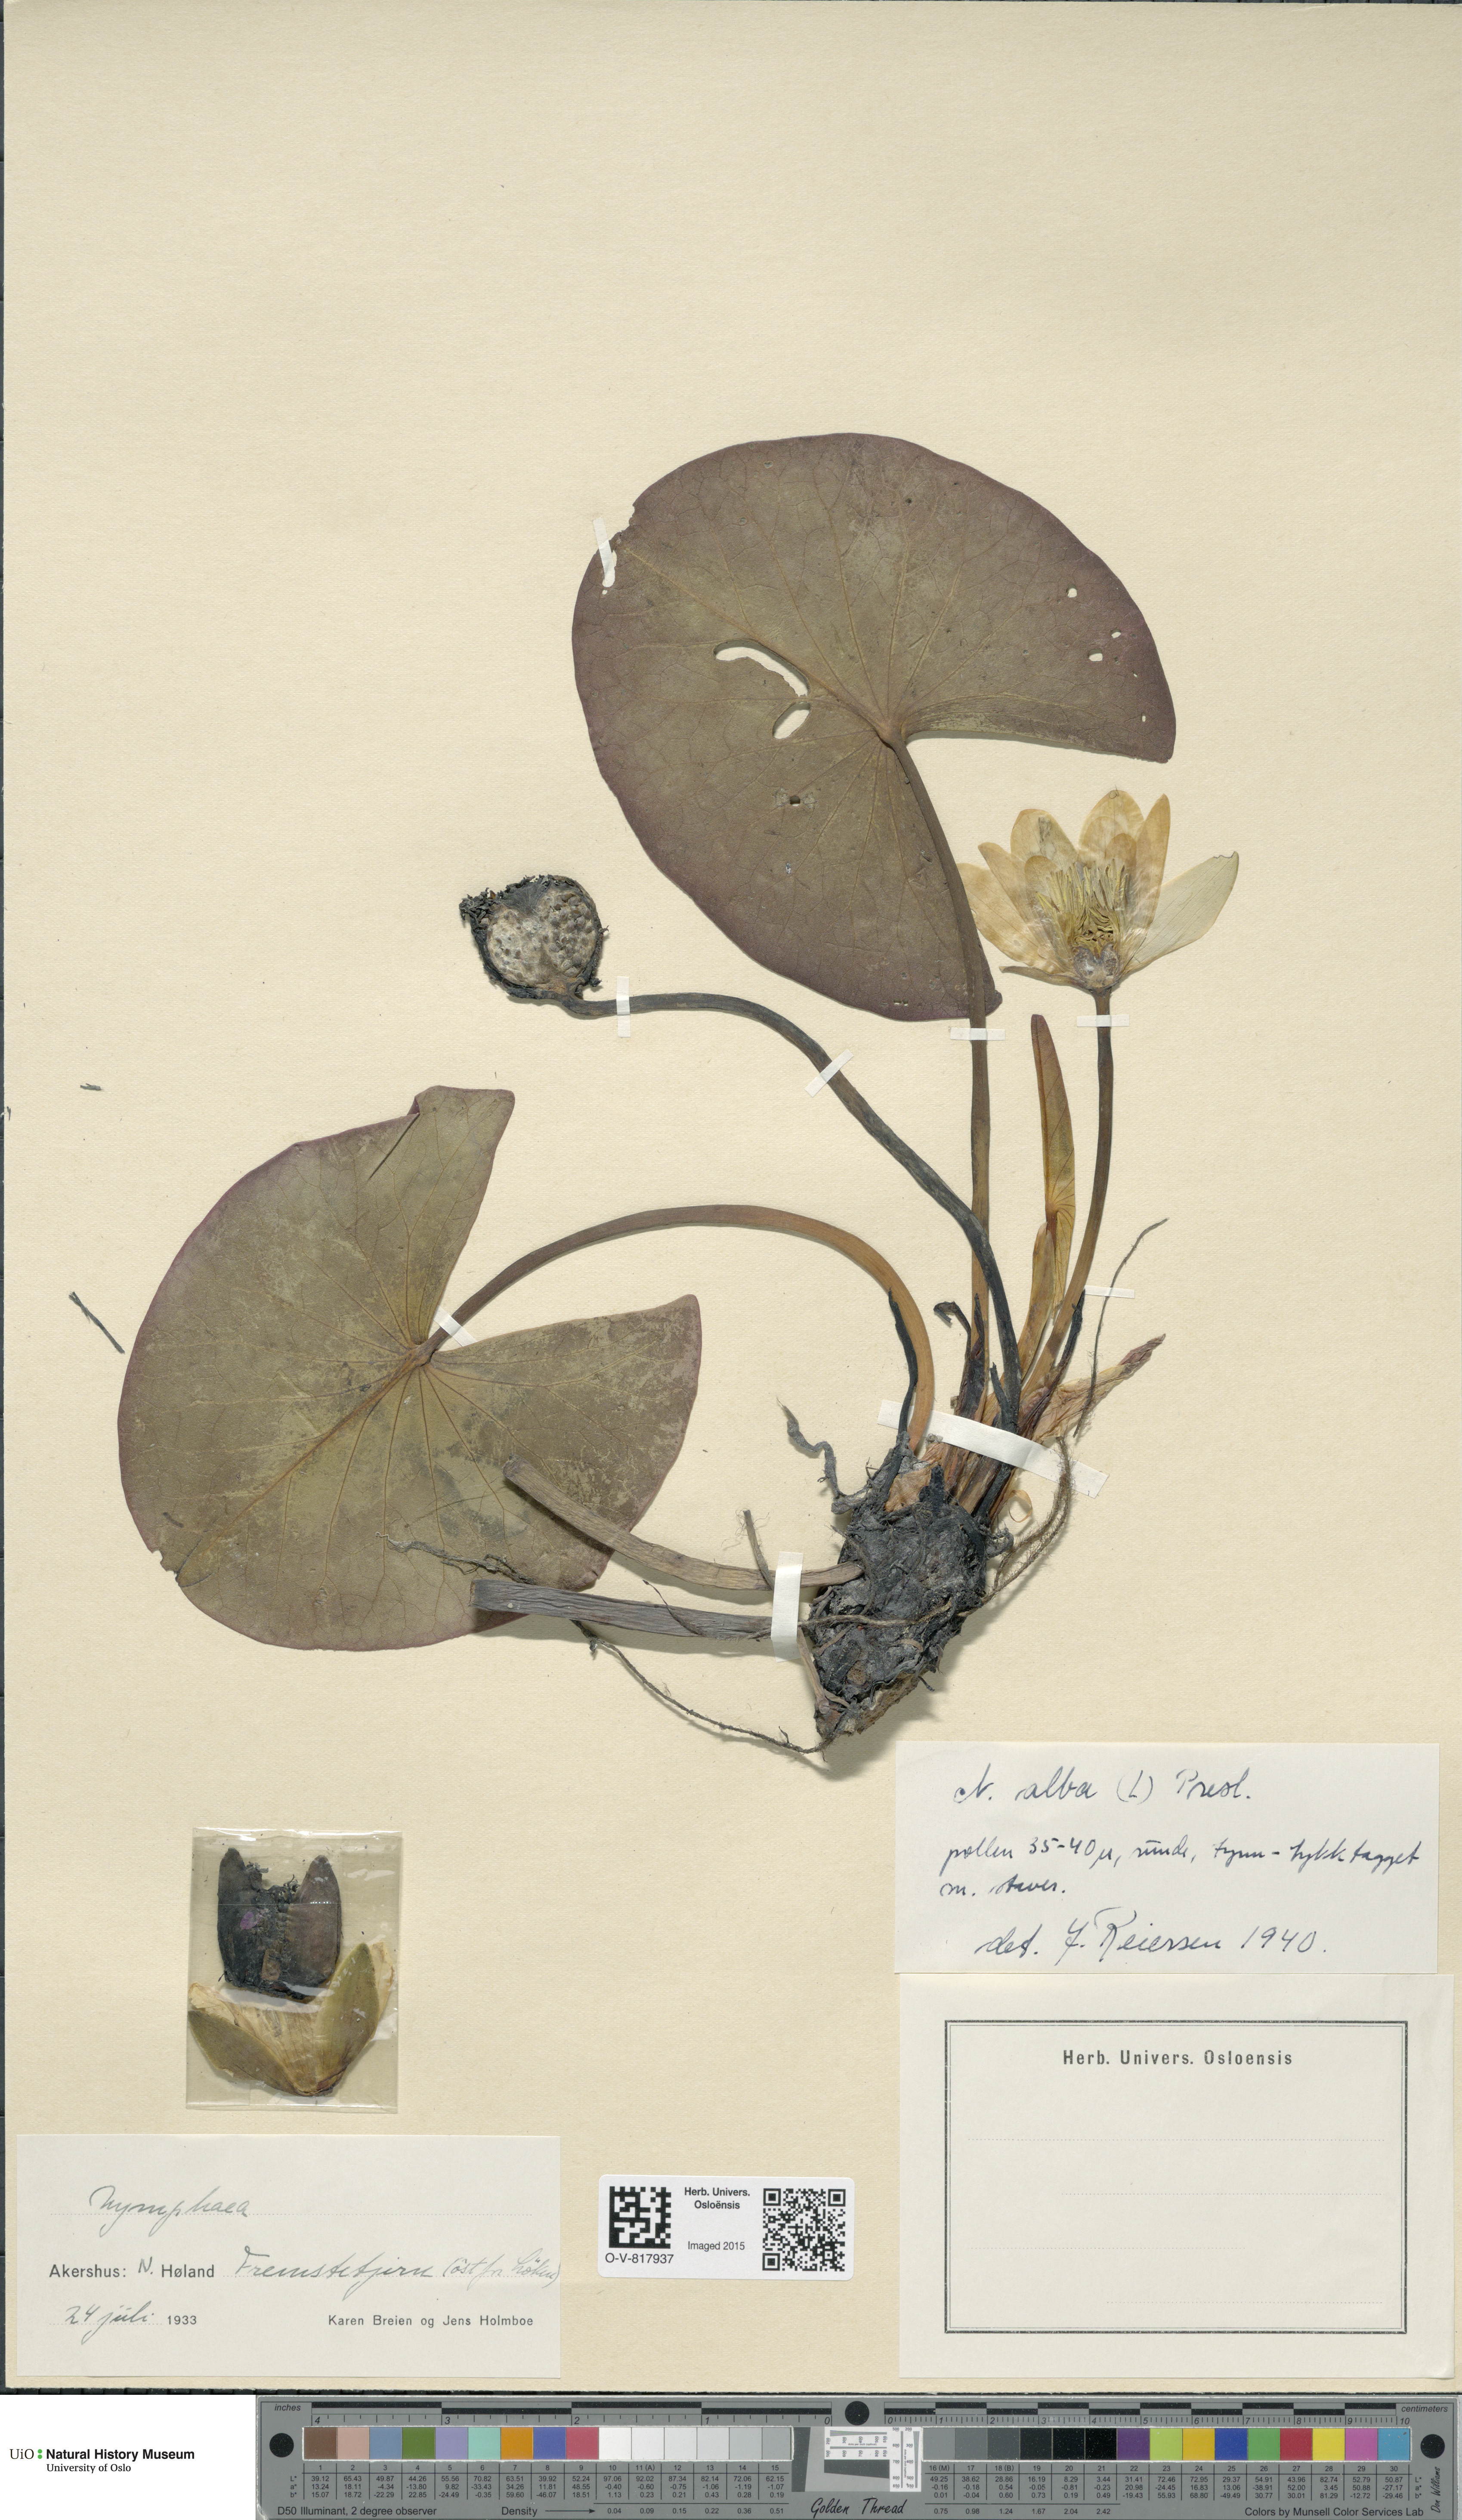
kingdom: Plantae
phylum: Tracheophyta
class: Magnoliopsida
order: Nymphaeales
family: Nymphaeaceae
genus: Nymphaea
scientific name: Nymphaea alba
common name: White water-lily
